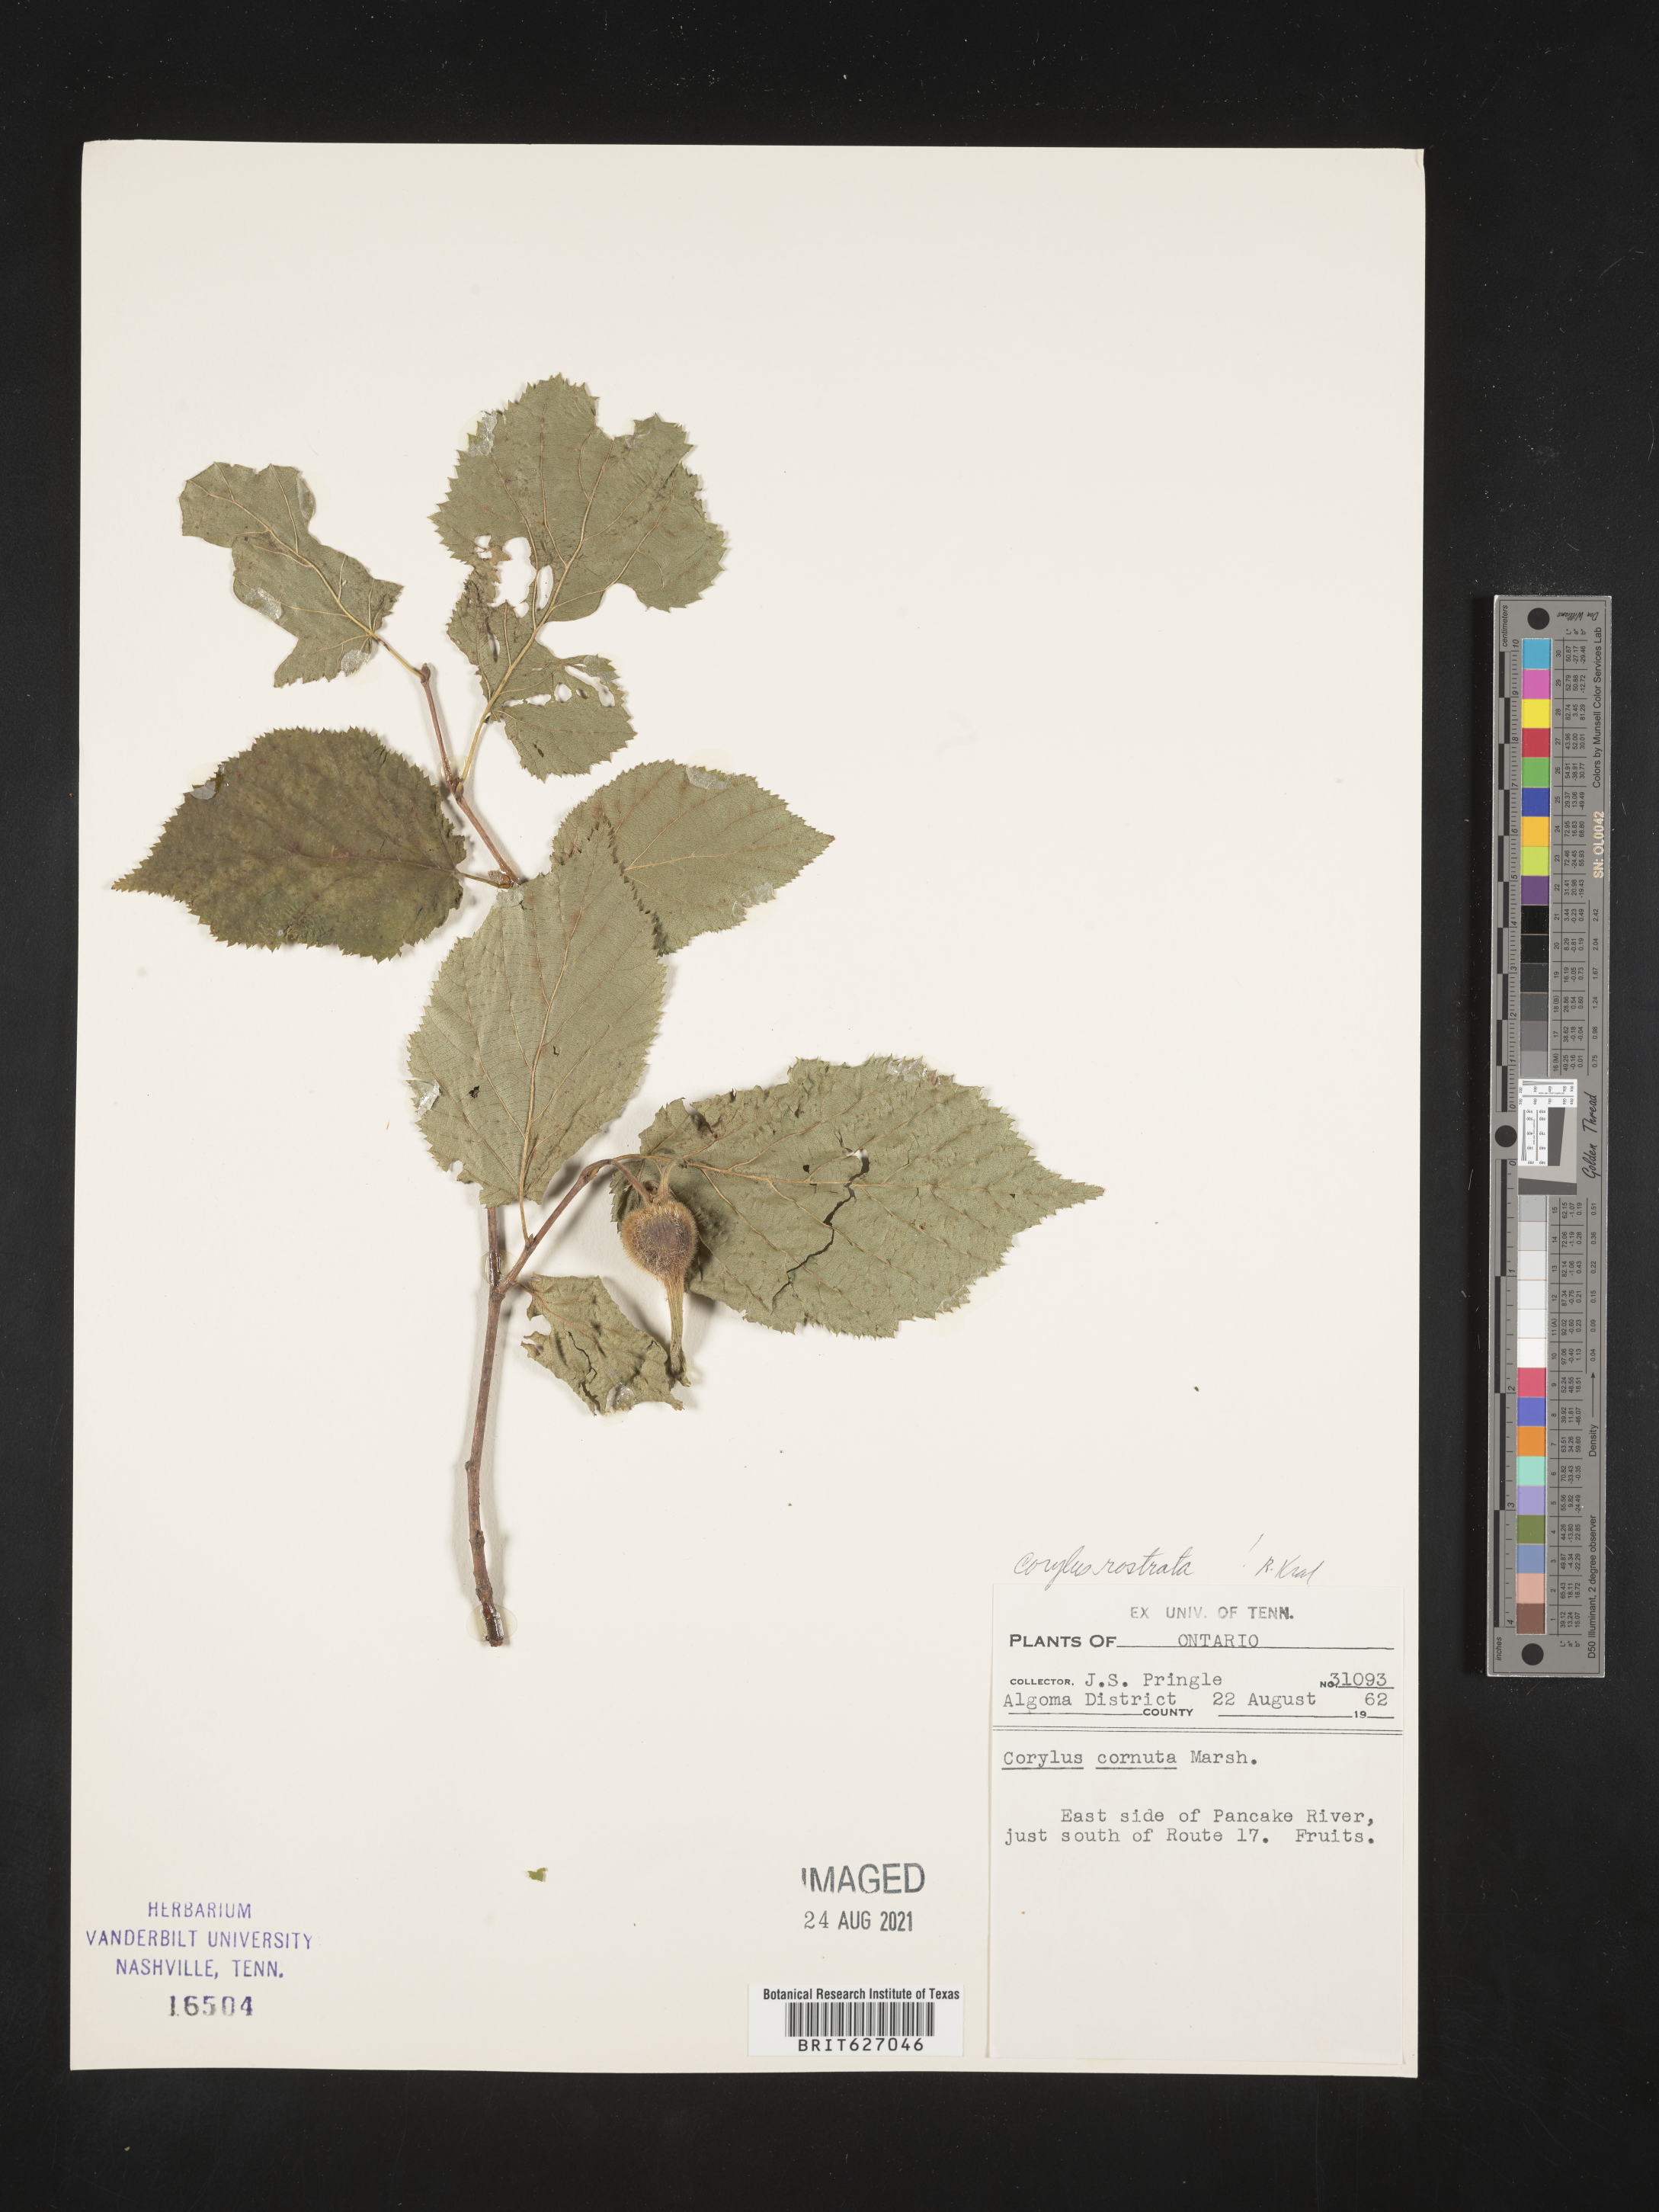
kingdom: Plantae
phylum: Tracheophyta
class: Magnoliopsida
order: Fagales
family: Betulaceae
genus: Corylus
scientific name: Corylus cornuta
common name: Beaked hazel
